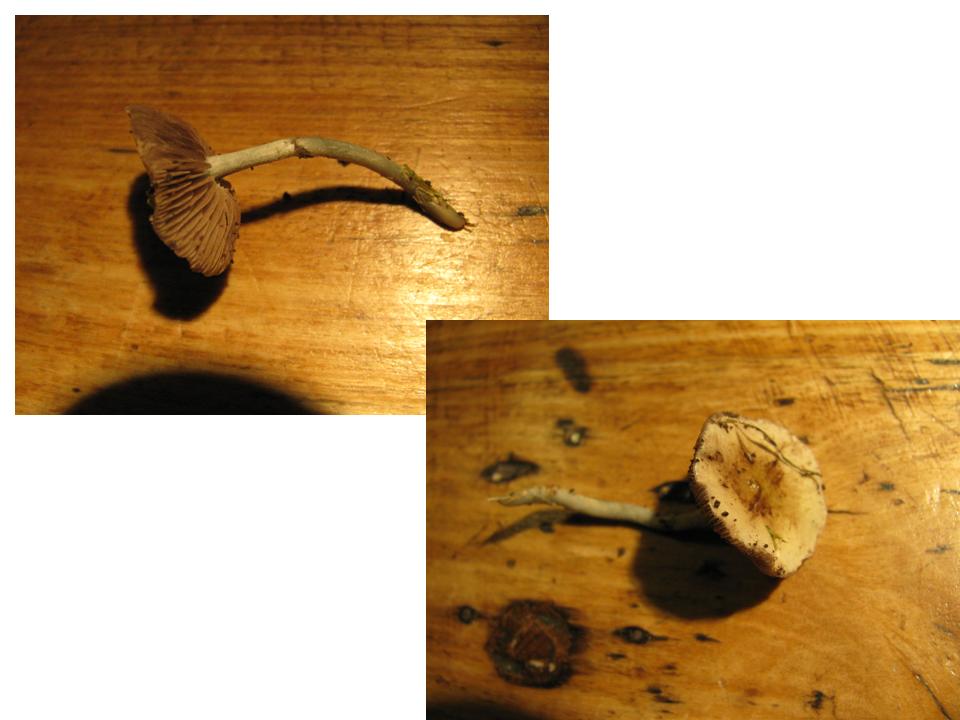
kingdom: Fungi
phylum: Basidiomycota
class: Agaricomycetes
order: Agaricales
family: Strophariaceae
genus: Stropharia
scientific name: Stropharia pseudocyanea
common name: blegblå bredblad
